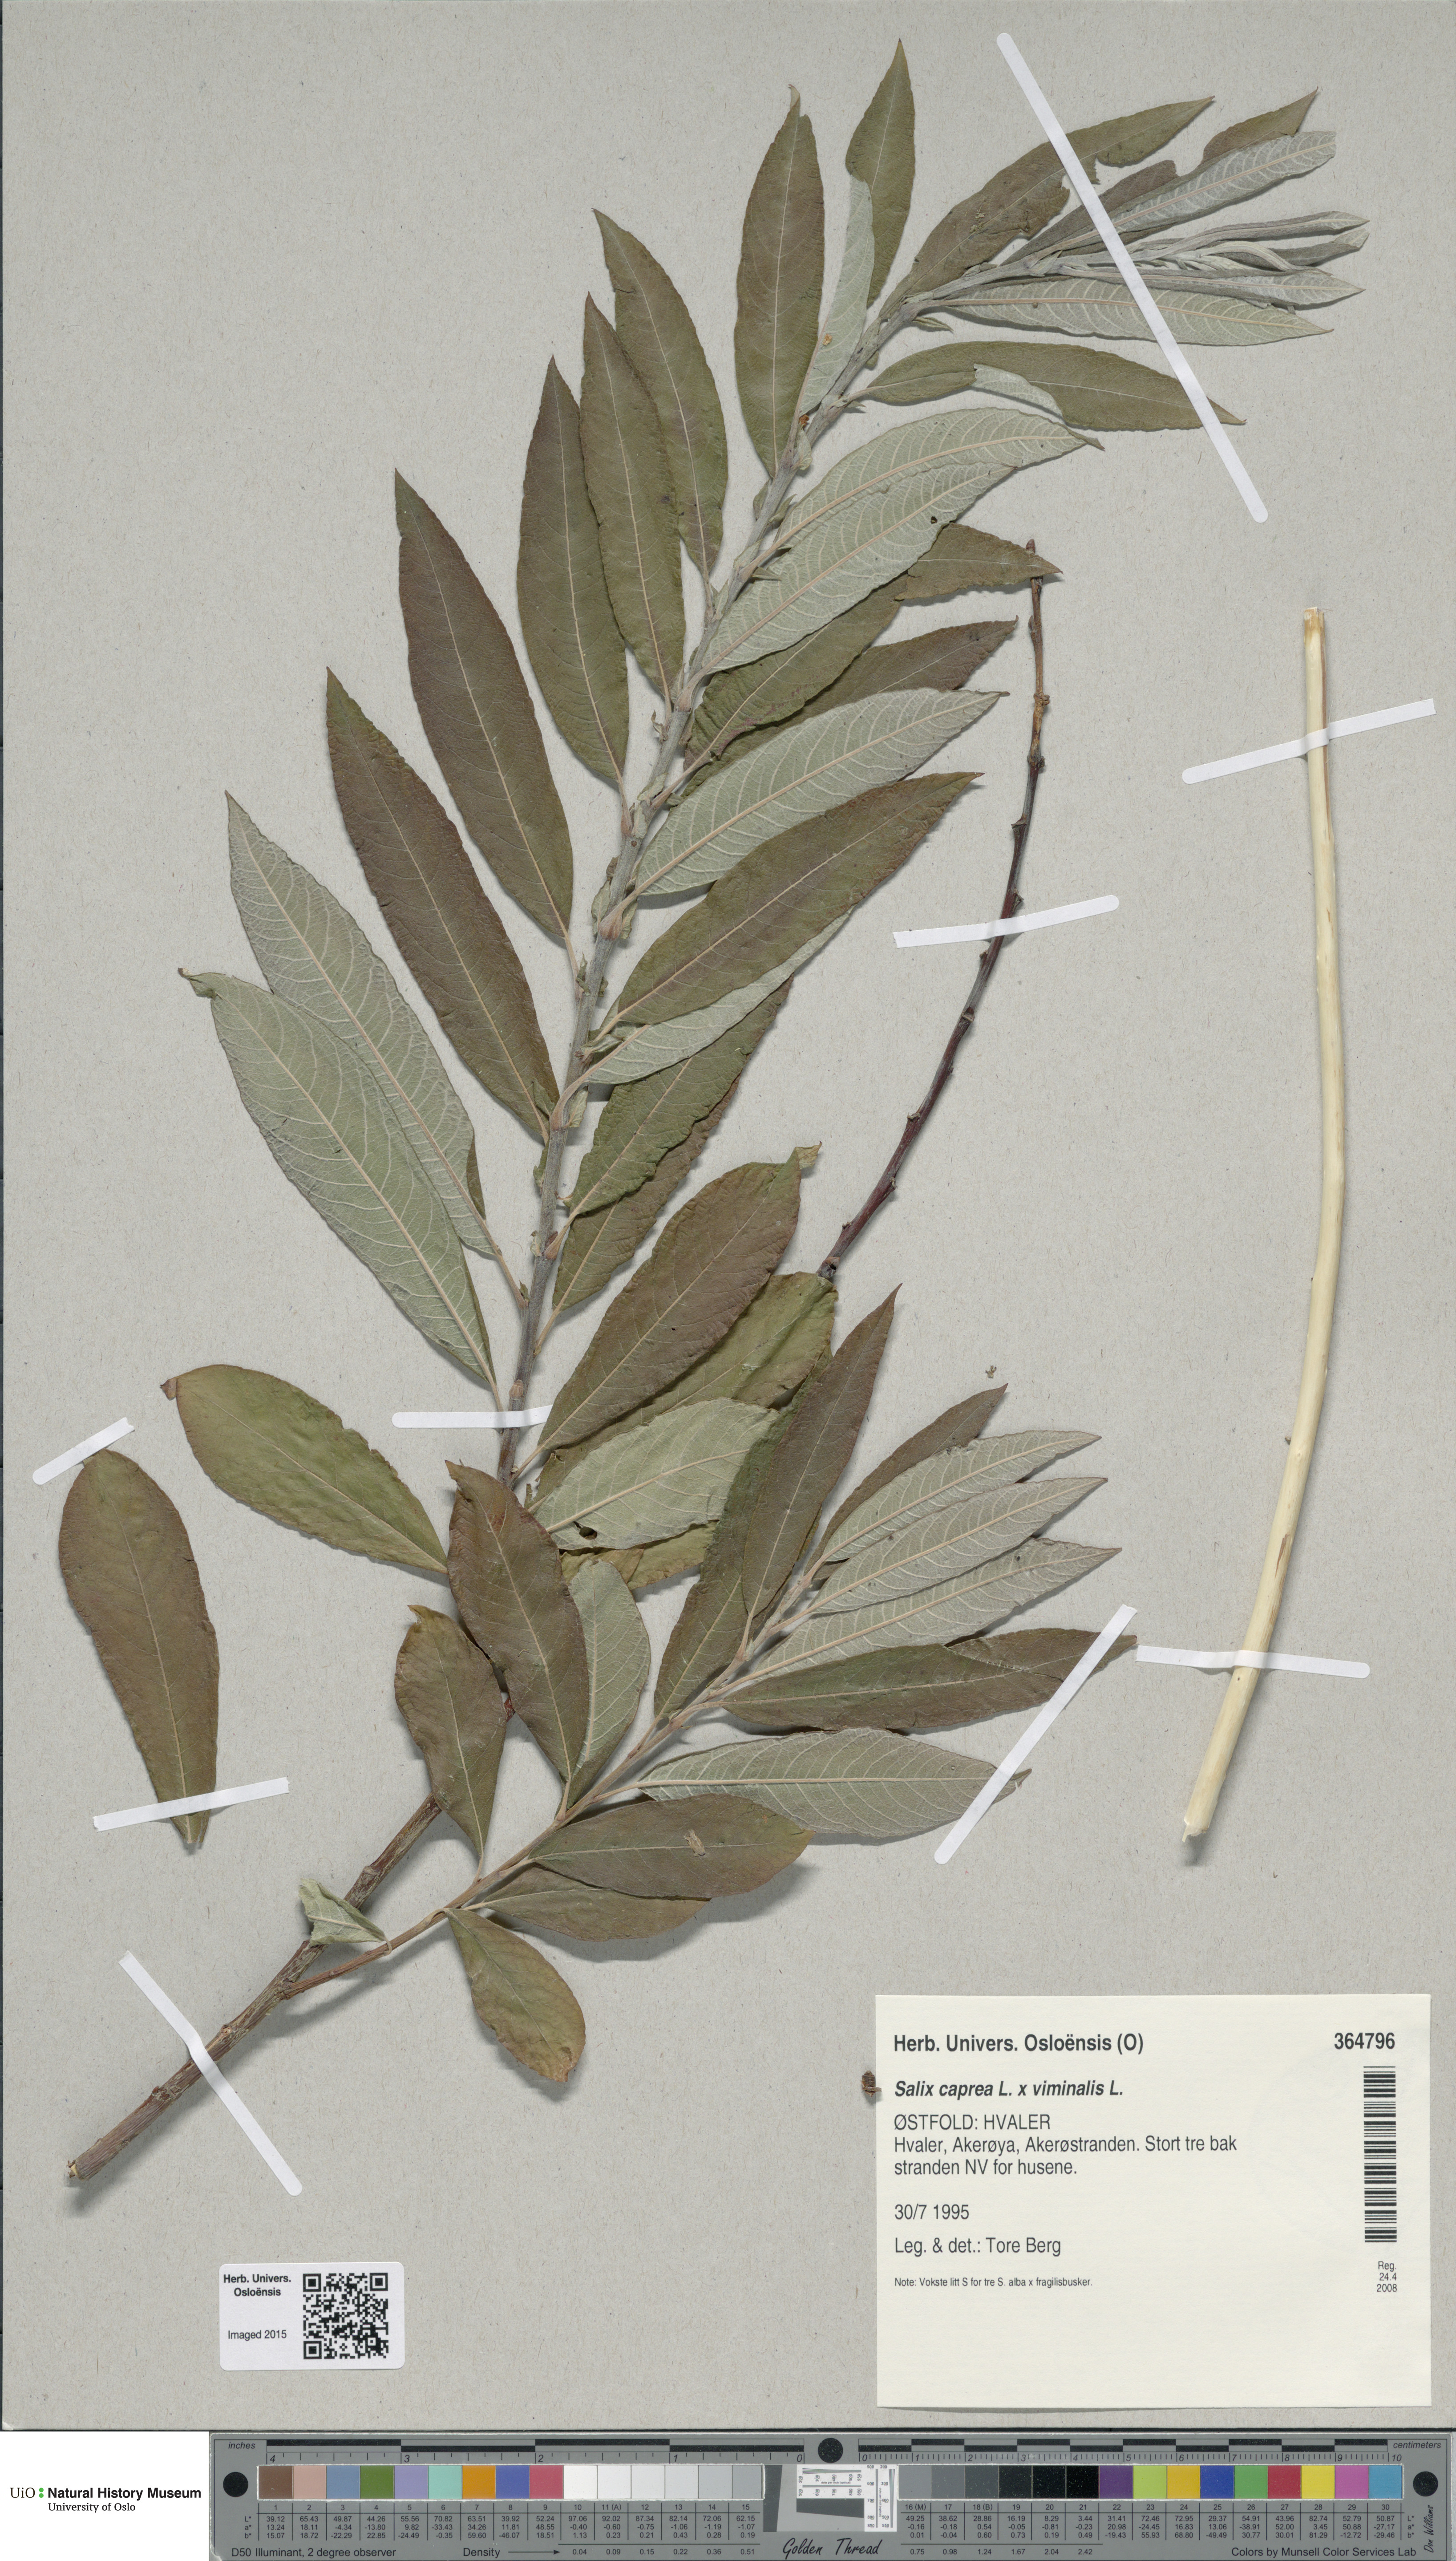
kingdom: Plantae
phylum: Tracheophyta
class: Magnoliopsida
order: Malpighiales
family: Salicaceae
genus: Salix
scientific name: Salix
